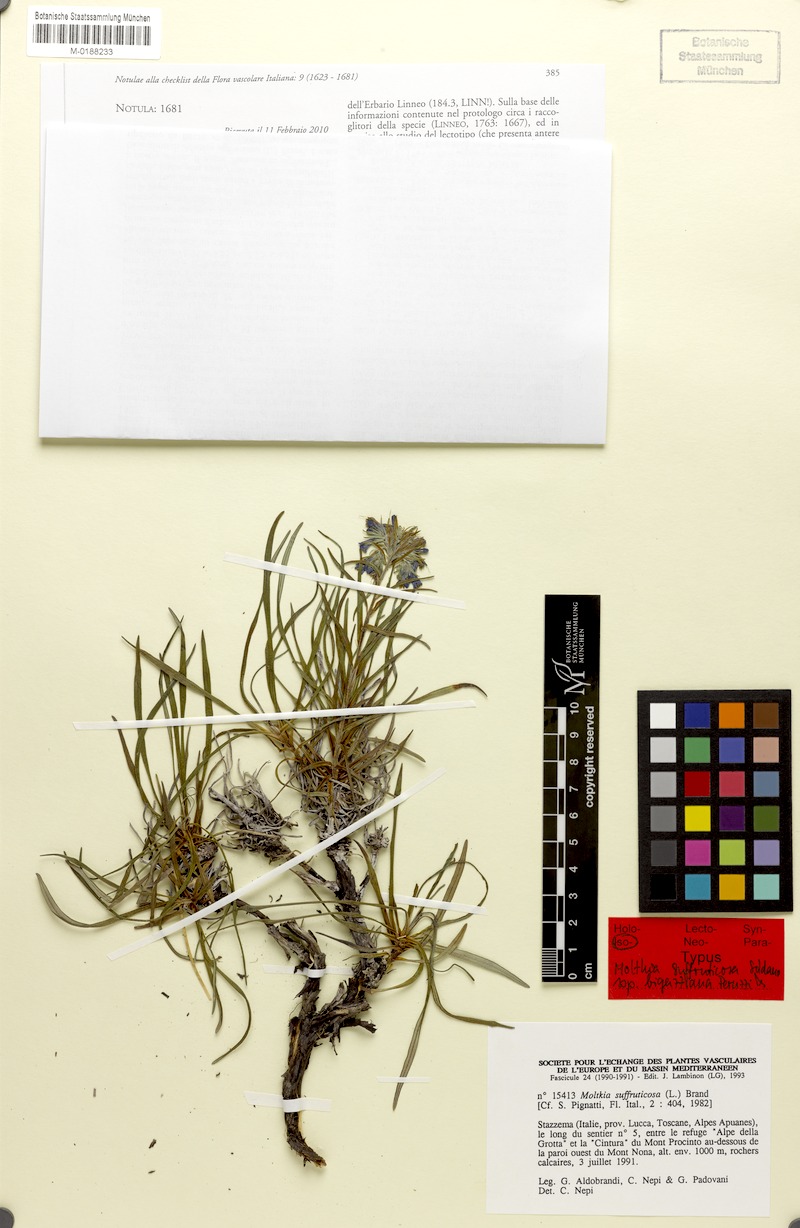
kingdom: Plantae
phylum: Tracheophyta
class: Magnoliopsida
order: Boraginales
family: Boraginaceae
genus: Moltkia
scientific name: Moltkia suffruticosa
